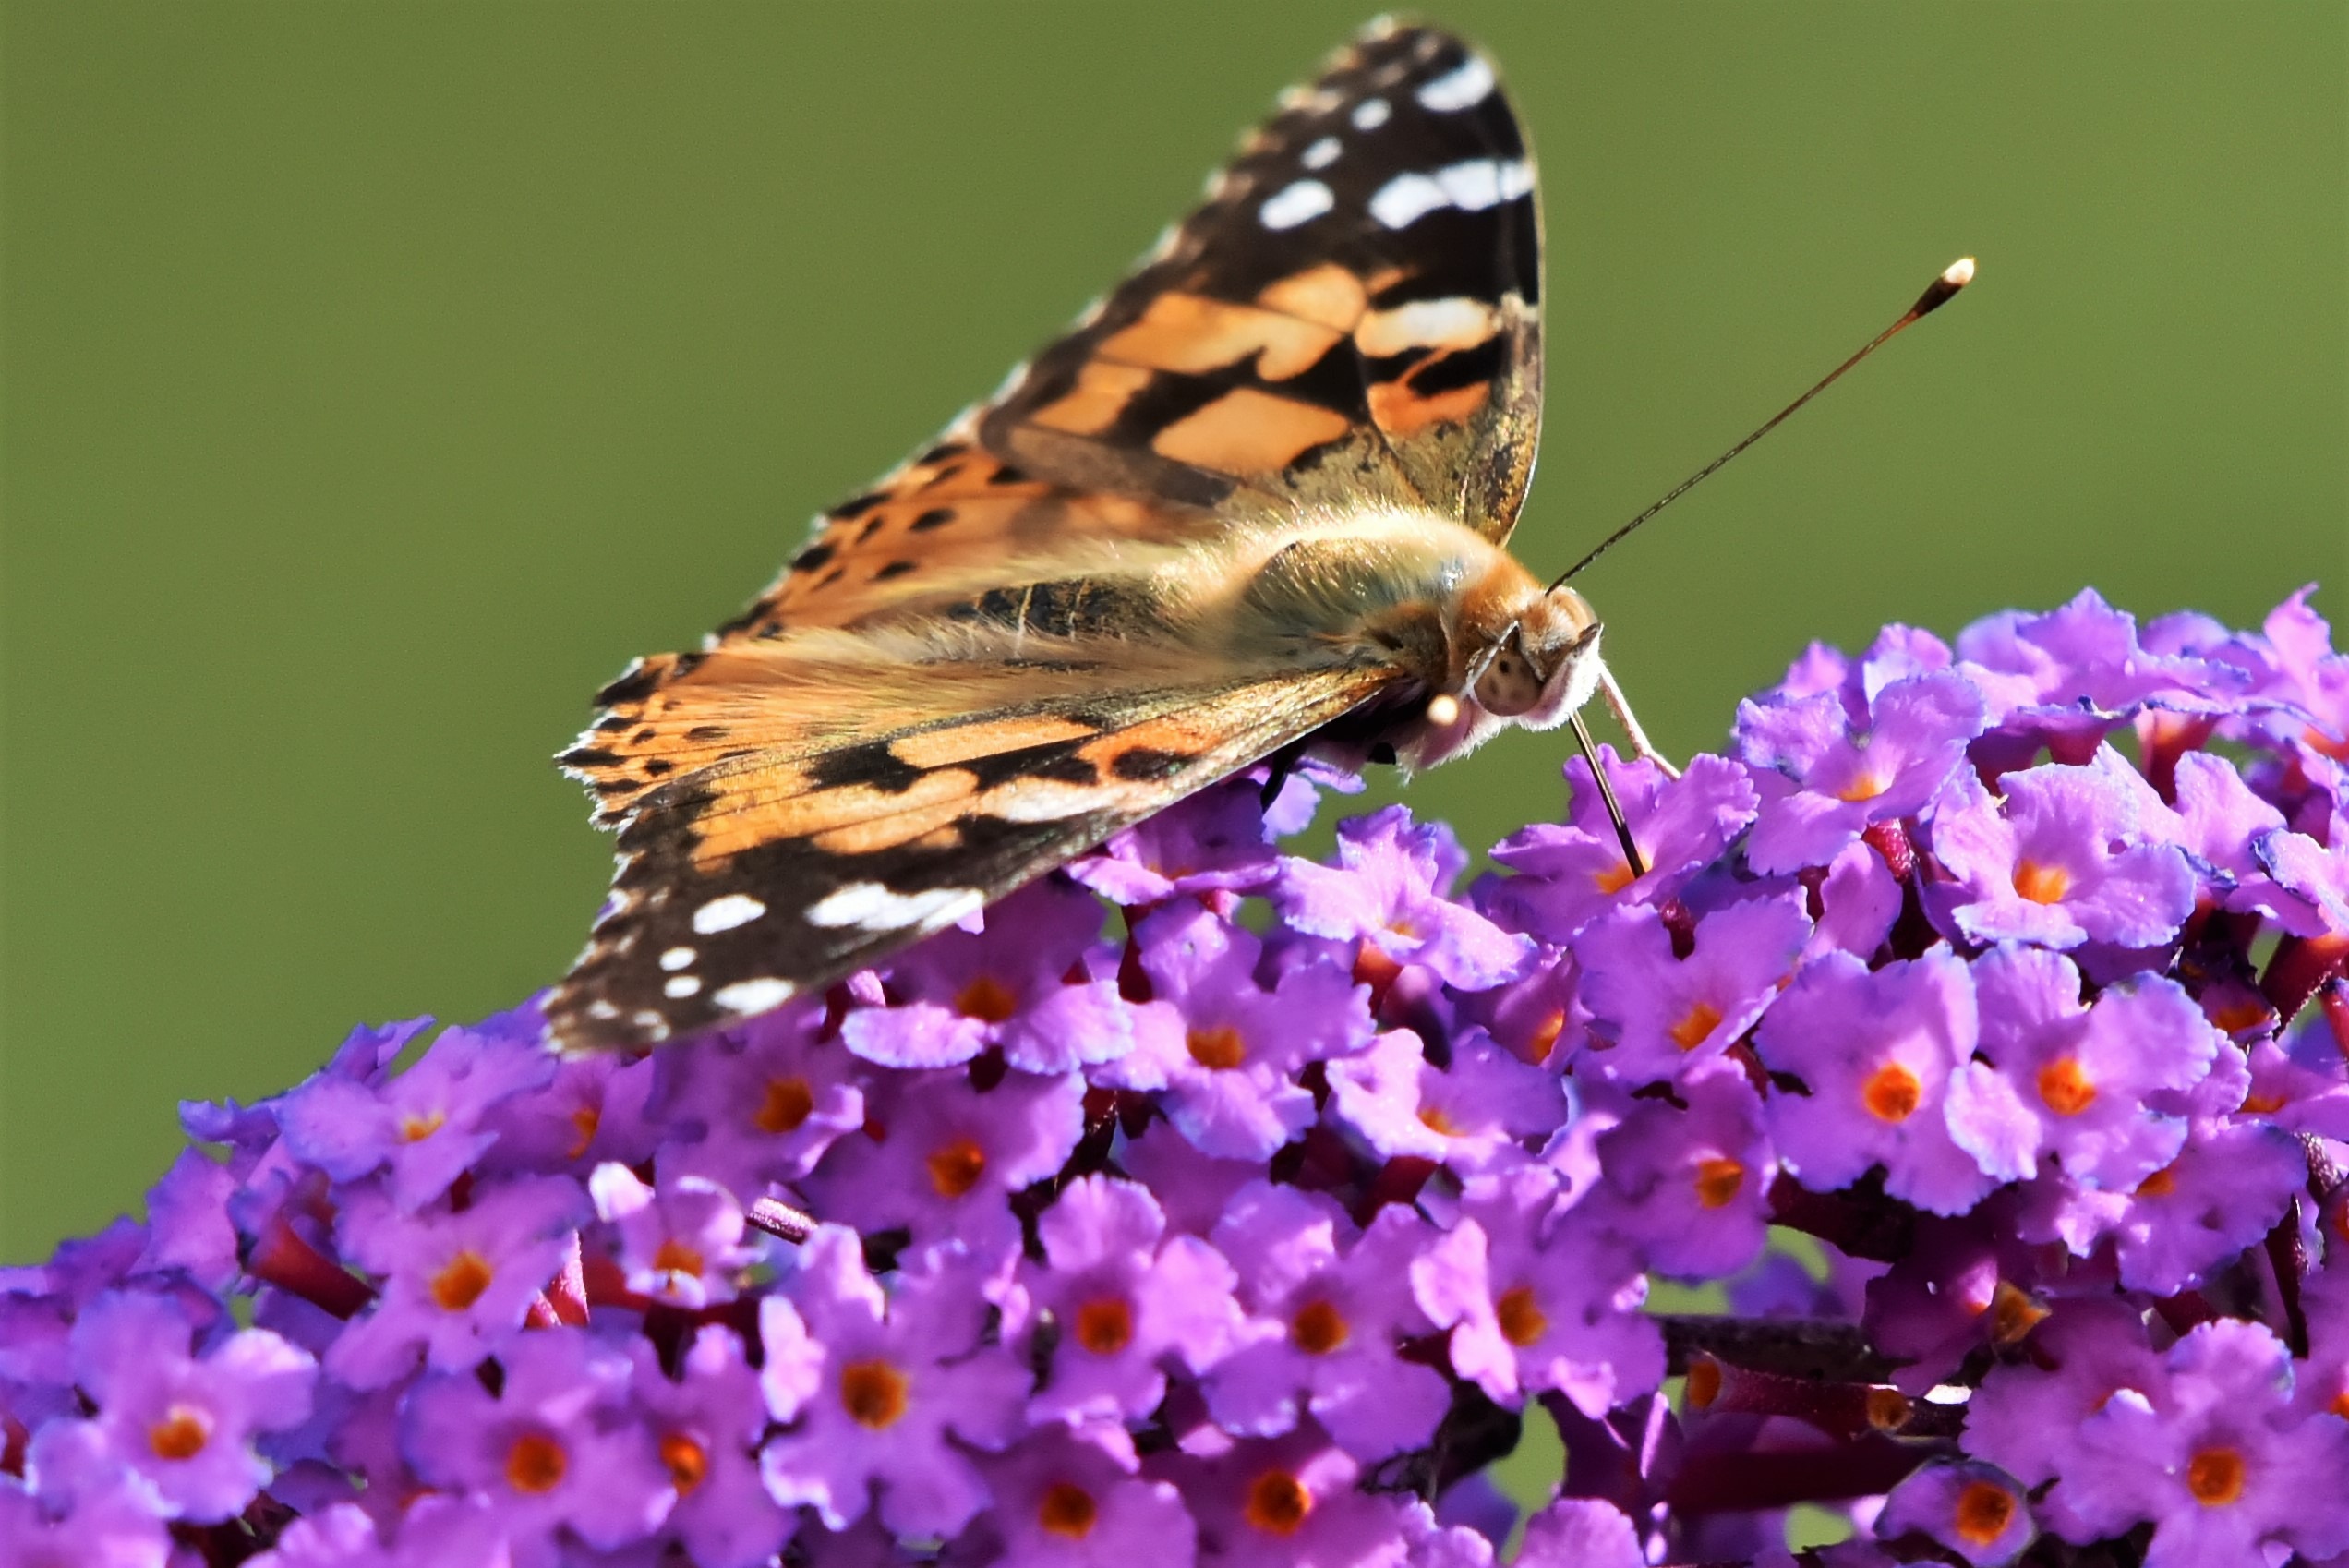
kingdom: Animalia
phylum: Arthropoda
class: Insecta
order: Lepidoptera
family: Nymphalidae
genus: Vanessa
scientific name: Vanessa cardui
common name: Tidselsommerfugl
